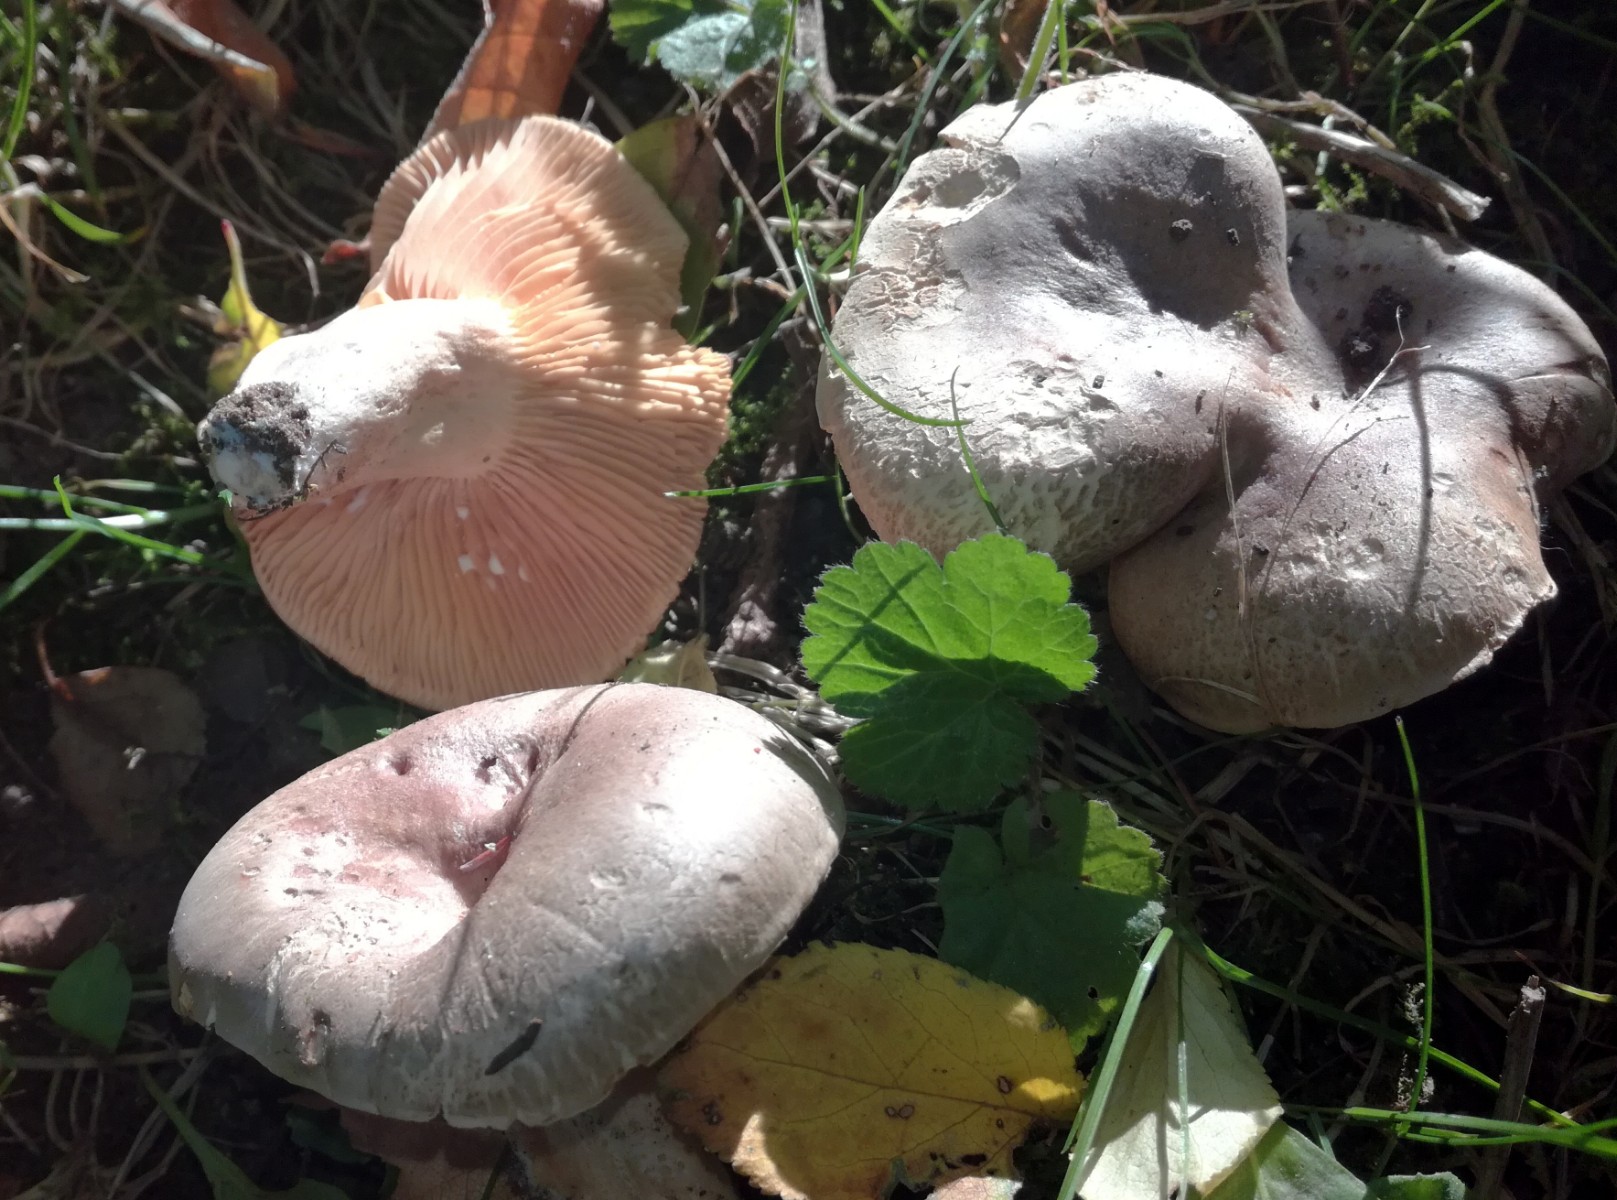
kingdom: Fungi
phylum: Basidiomycota
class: Agaricomycetes
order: Russulales
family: Russulaceae
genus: Lactarius
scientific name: Lactarius pyrogalus
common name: hassel-mælkehat
